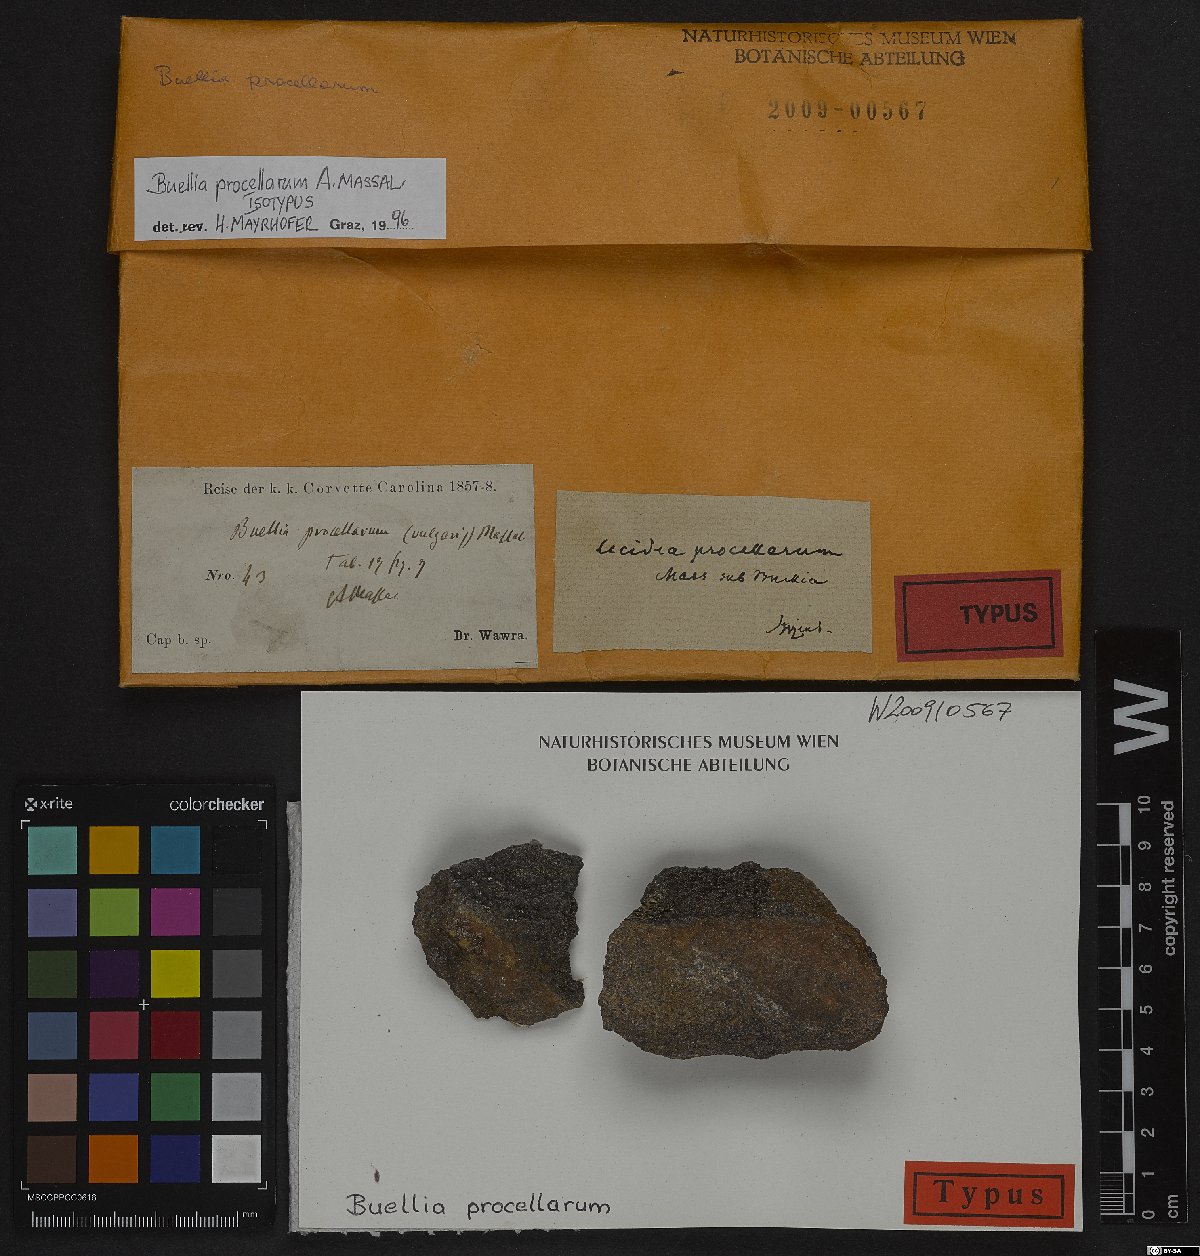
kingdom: Fungi
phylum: Ascomycota
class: Lecanoromycetes
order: Caliciales
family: Caliciaceae
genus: Buellia
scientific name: Buellia procellarum
